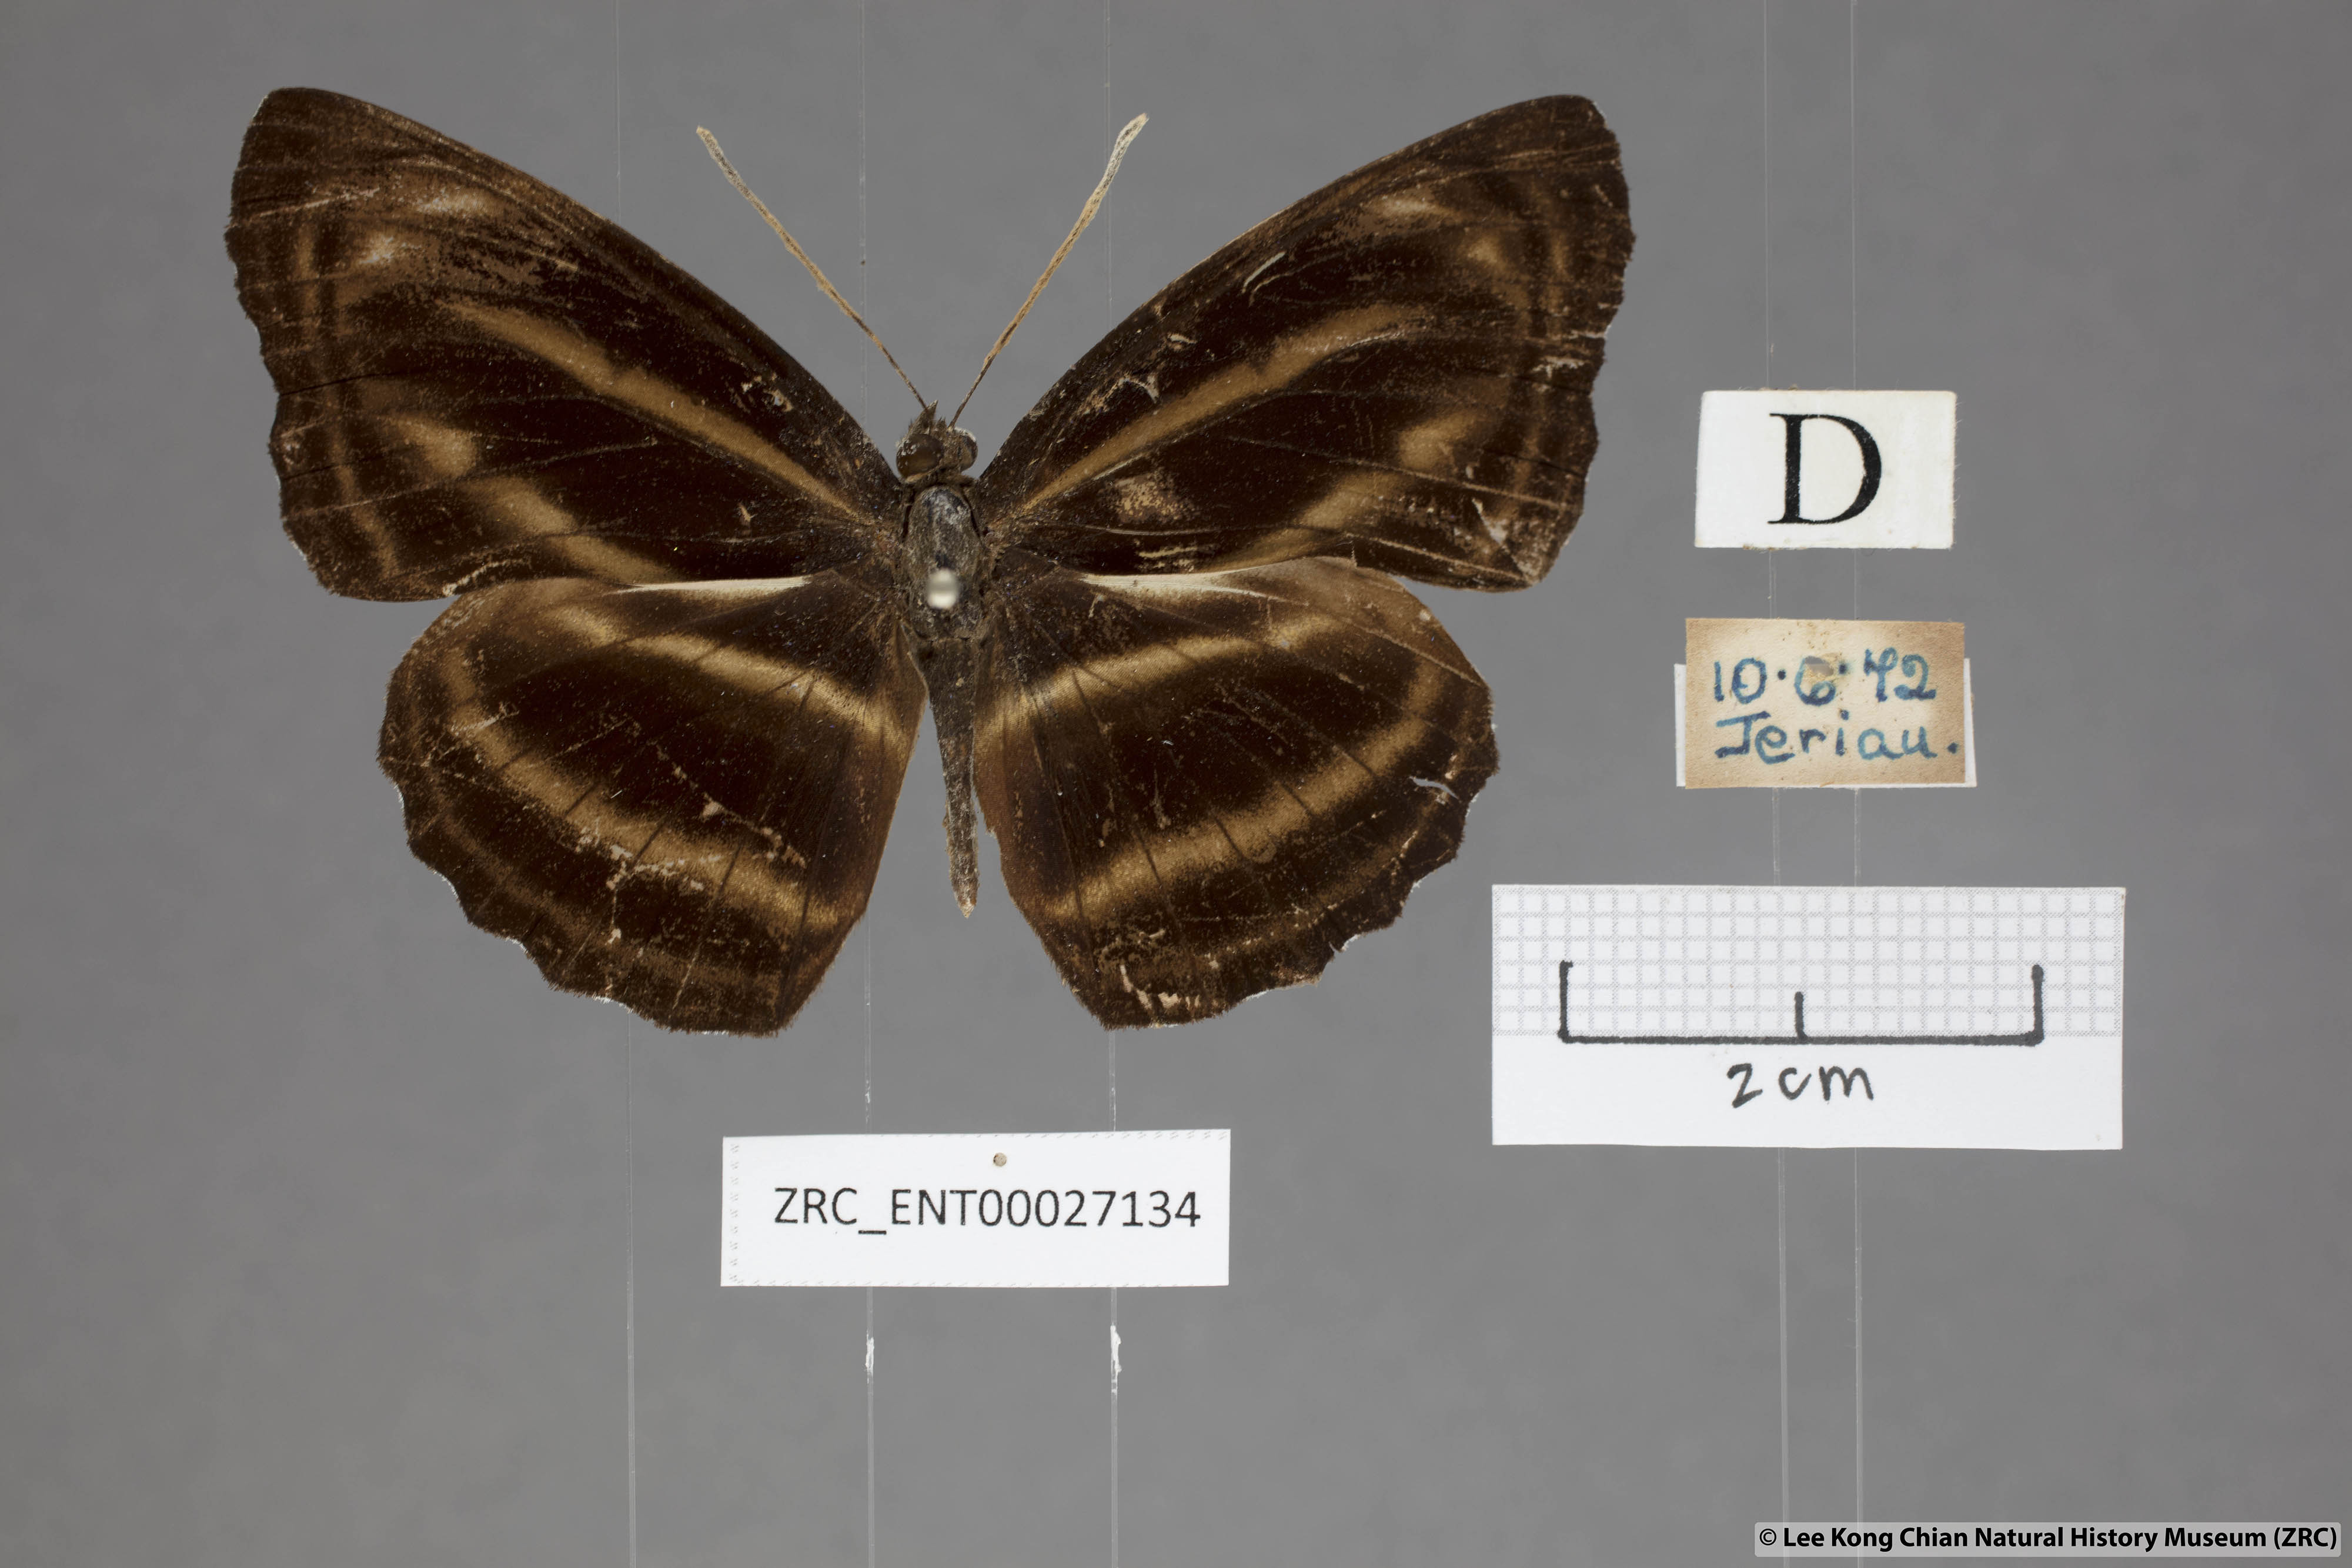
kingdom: Animalia
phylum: Arthropoda
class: Insecta
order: Lepidoptera
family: Nymphalidae
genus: Neptis
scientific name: Neptis anjana
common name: Rich sailer
